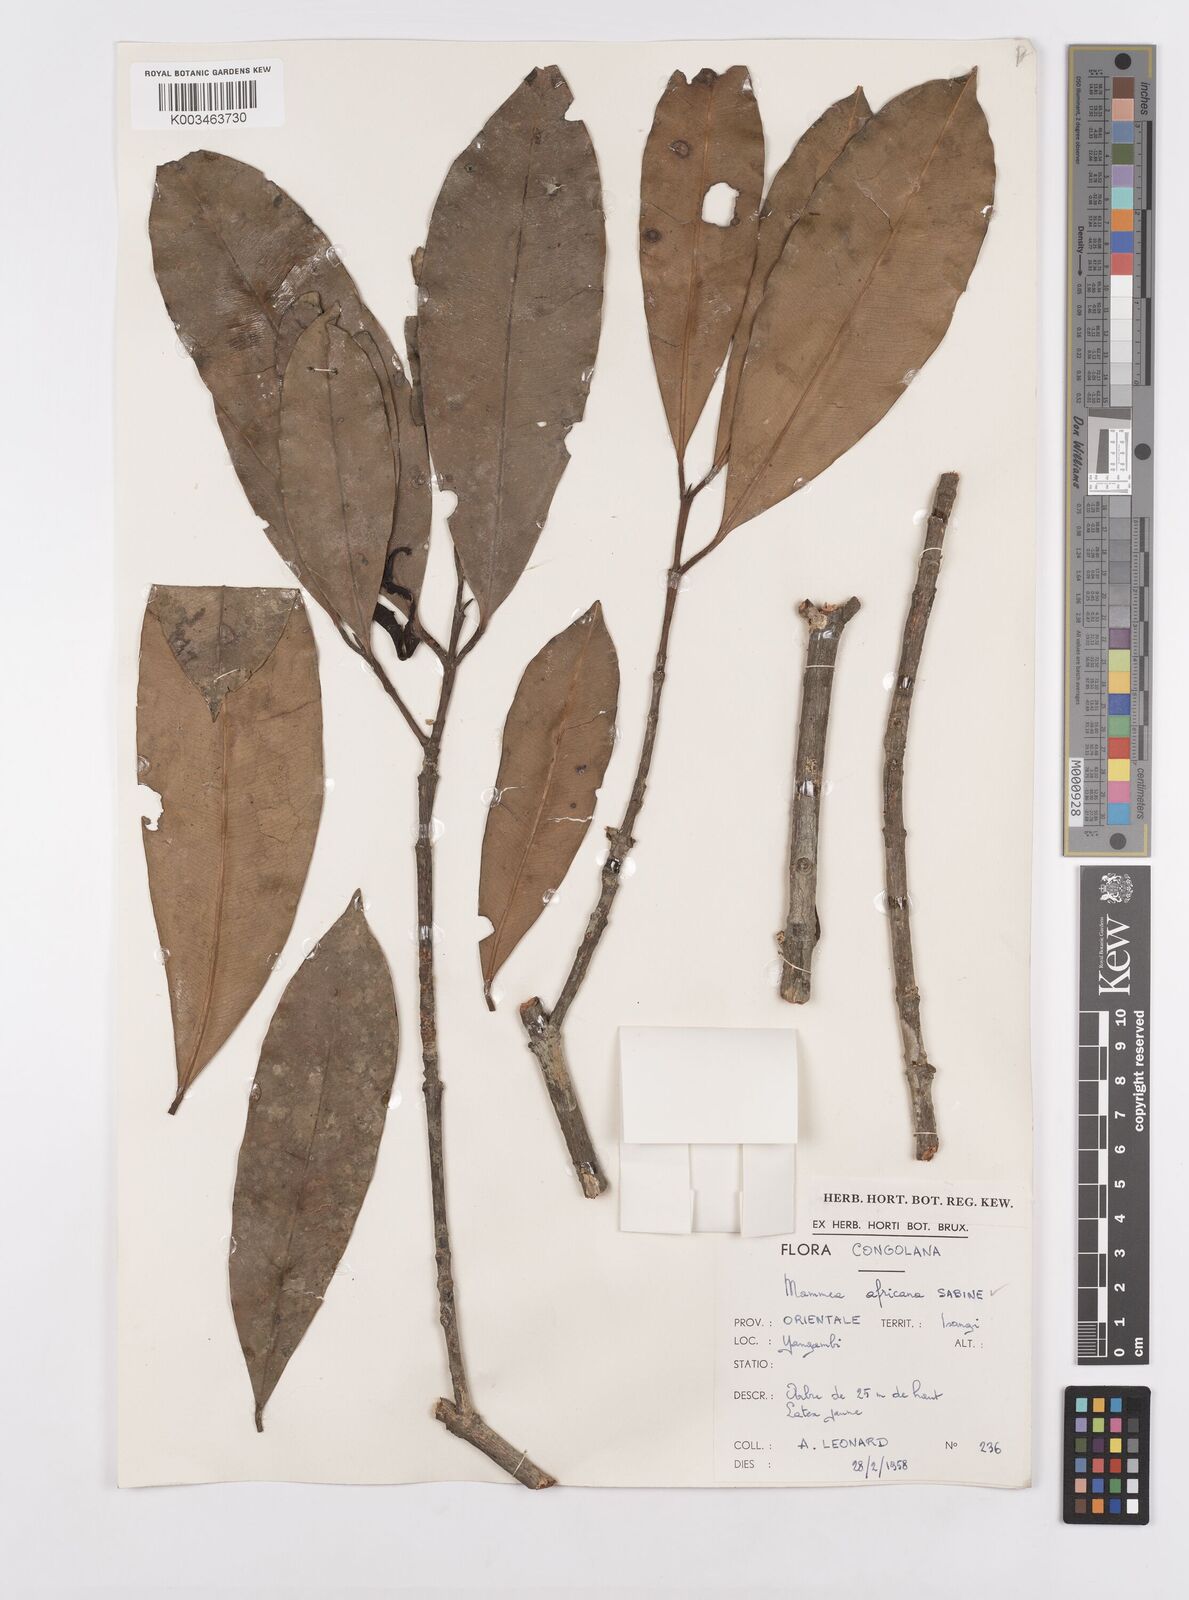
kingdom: Plantae
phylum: Tracheophyta
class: Magnoliopsida
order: Malpighiales
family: Calophyllaceae
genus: Mammea
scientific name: Mammea africana
